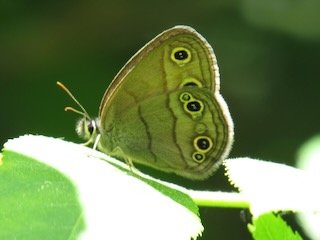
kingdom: Animalia
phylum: Arthropoda
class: Insecta
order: Lepidoptera
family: Nymphalidae
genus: Euptychia
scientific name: Euptychia cymela
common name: Little Wood Satyr
